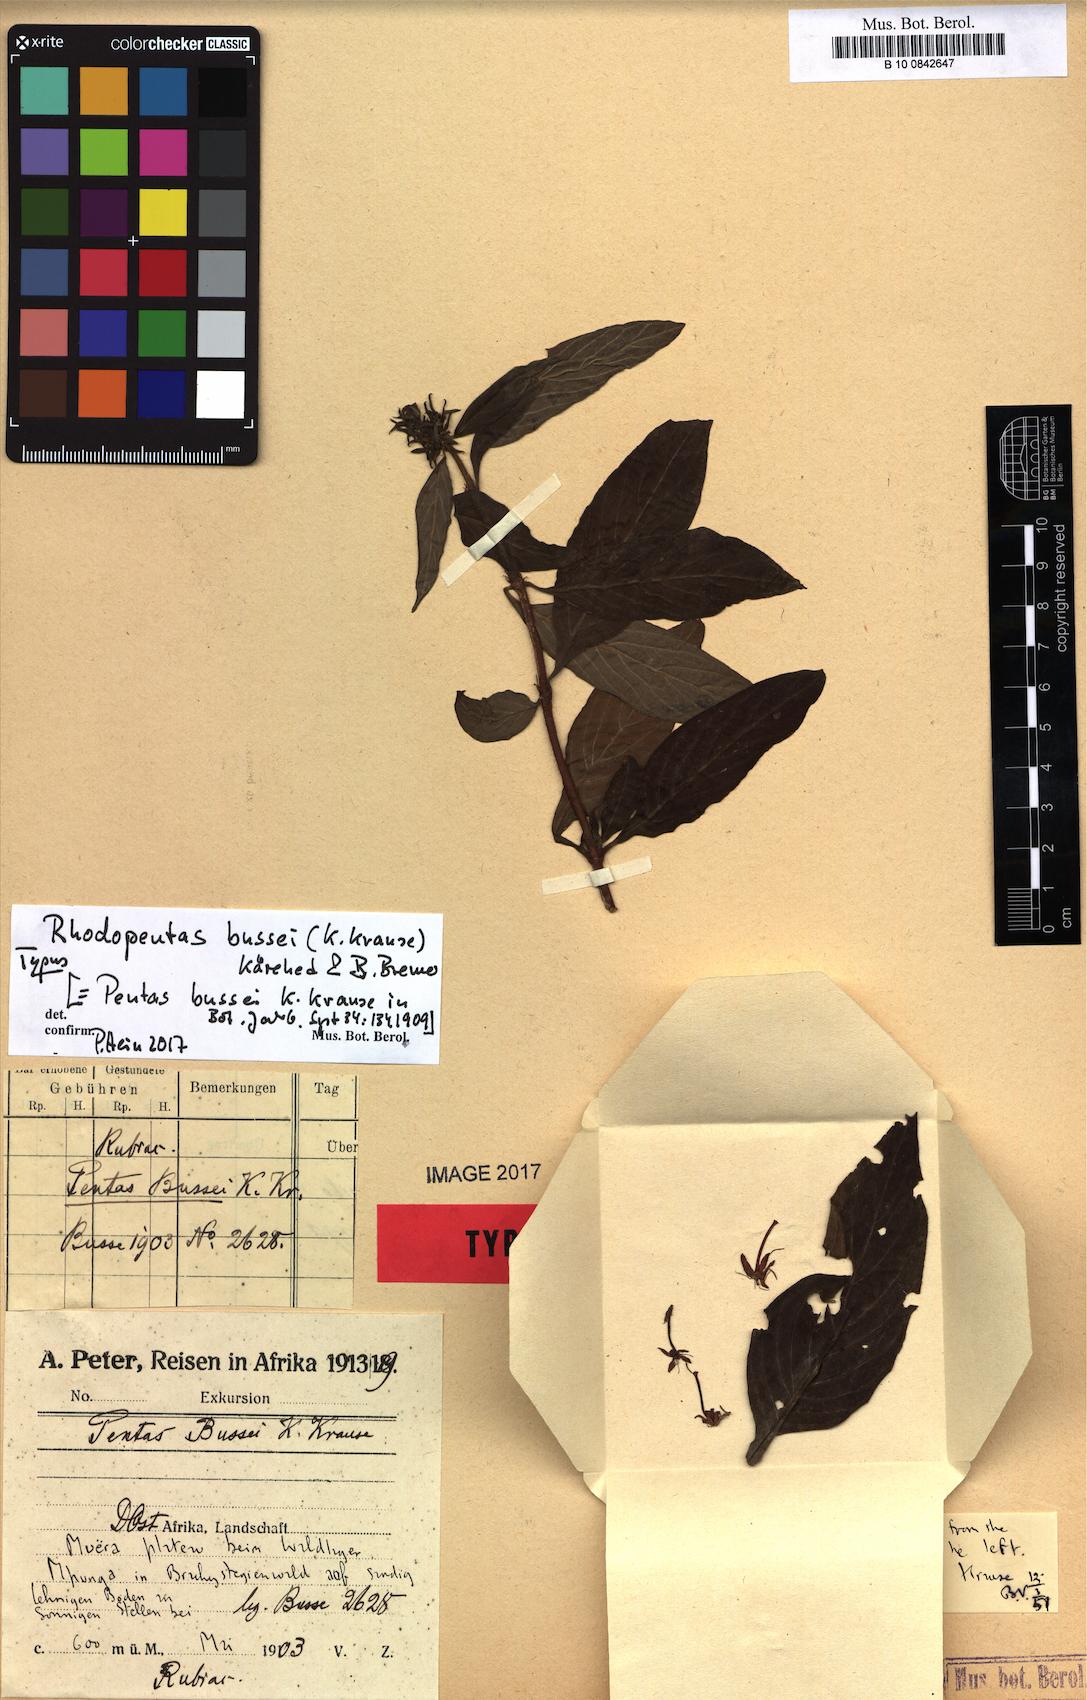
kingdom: Plantae
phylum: Tracheophyta
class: Magnoliopsida
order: Gentianales
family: Rubiaceae
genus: Rhodopentas
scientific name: Rhodopentas bussei
